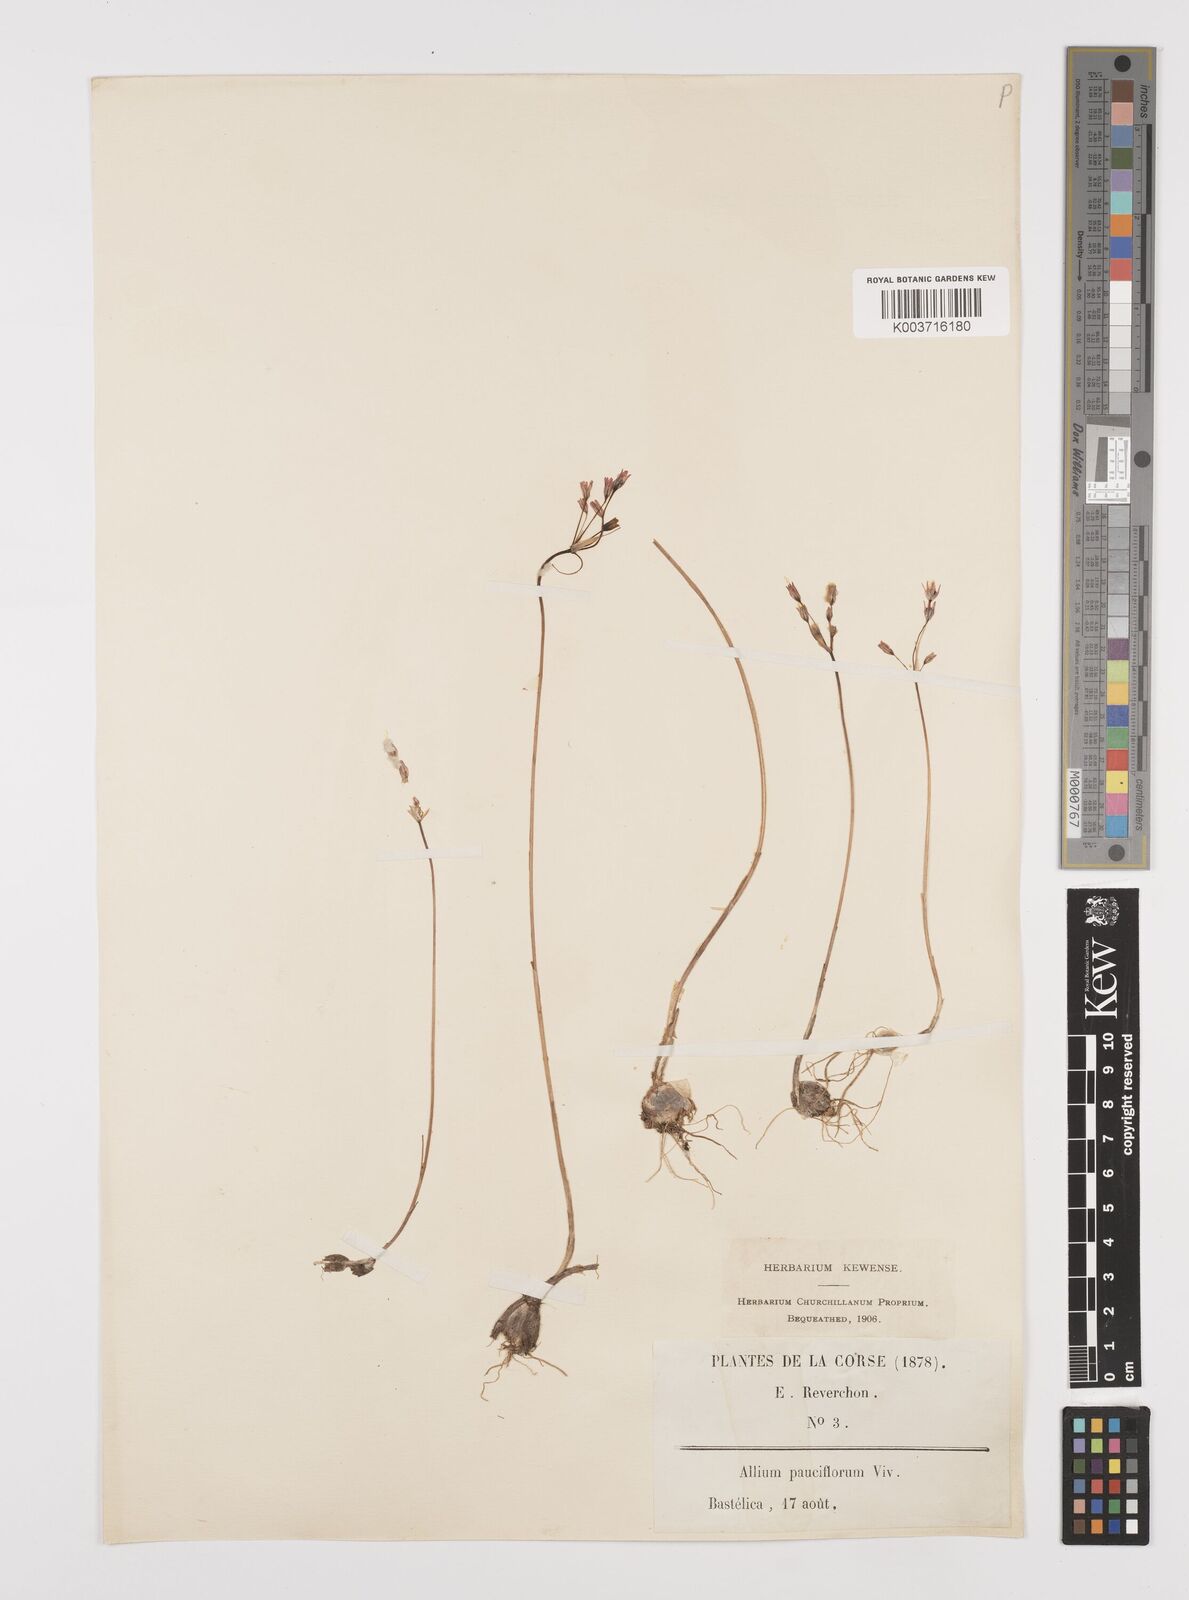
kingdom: Plantae
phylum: Tracheophyta
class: Liliopsida
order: Asparagales
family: Amaryllidaceae
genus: Allium
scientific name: Allium parciflorum
